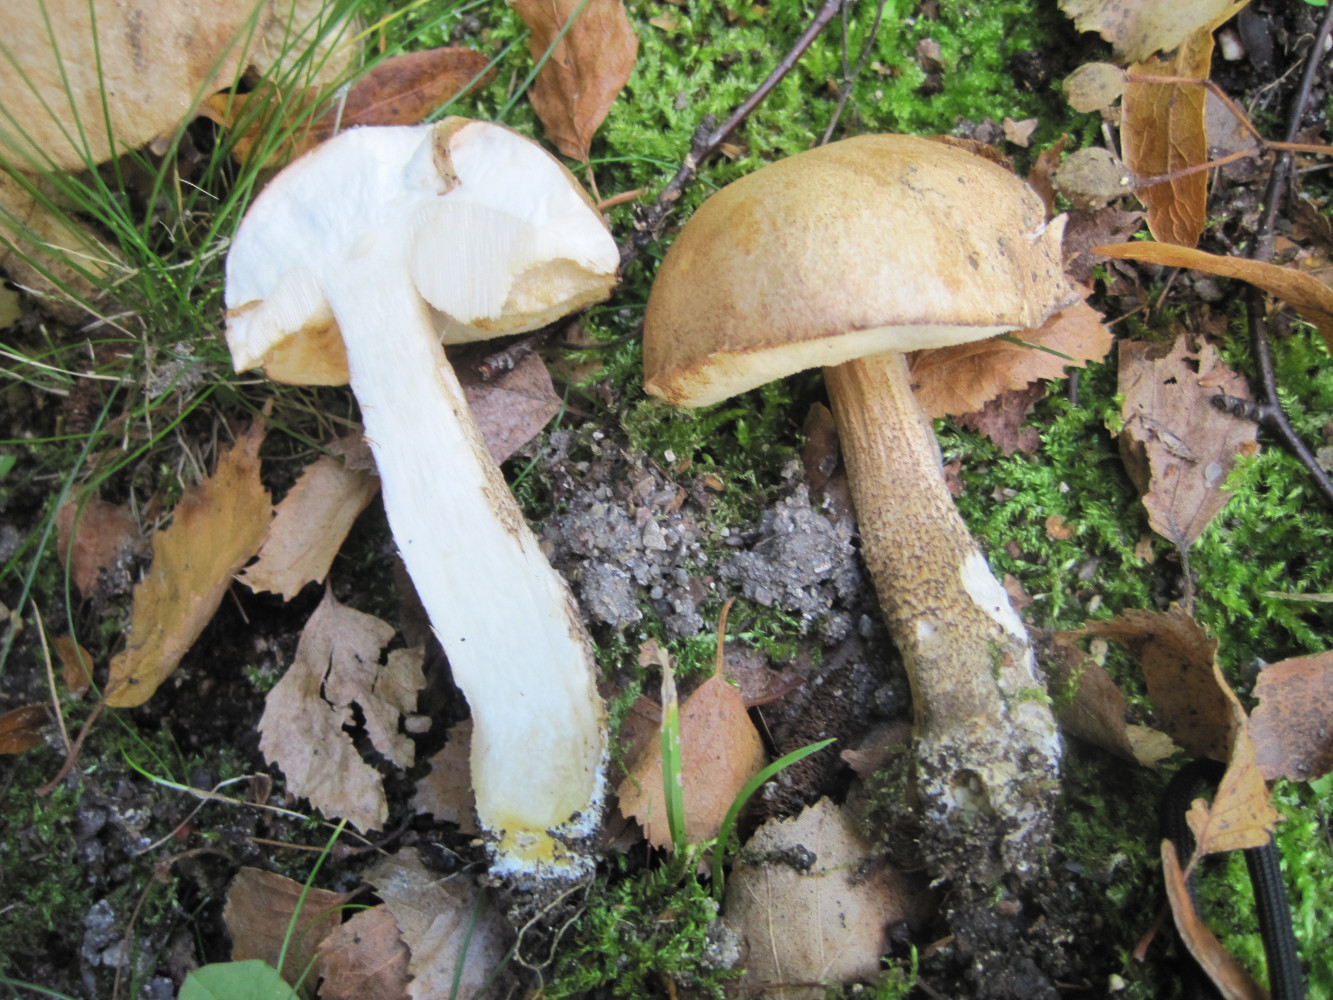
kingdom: Fungi
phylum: Basidiomycota
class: Agaricomycetes
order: Boletales
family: Boletaceae
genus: Leccinum
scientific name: Leccinum scabrum
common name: brun skælrørhat
